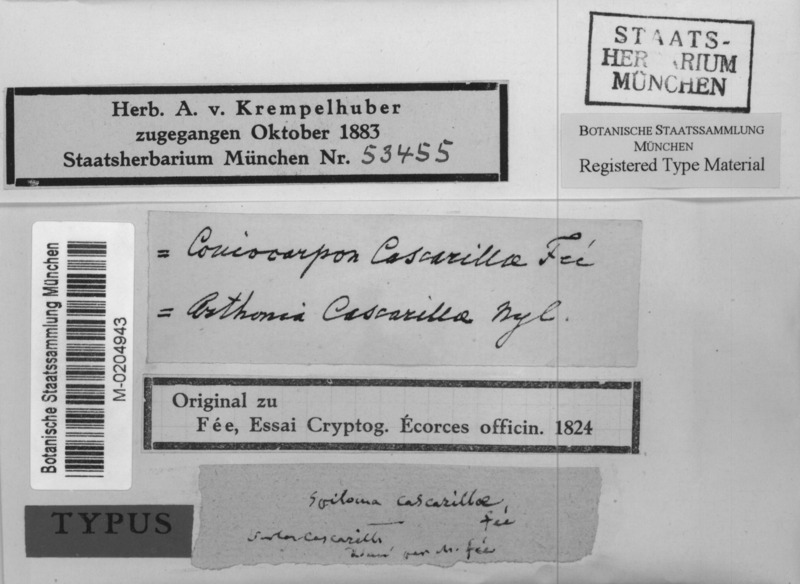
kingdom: Fungi
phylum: Ascomycota
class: Arthoniomycetes
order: Arthoniales
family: Arthoniaceae
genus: Arthonia
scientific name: Arthonia radiata
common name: Asterisk lichen
